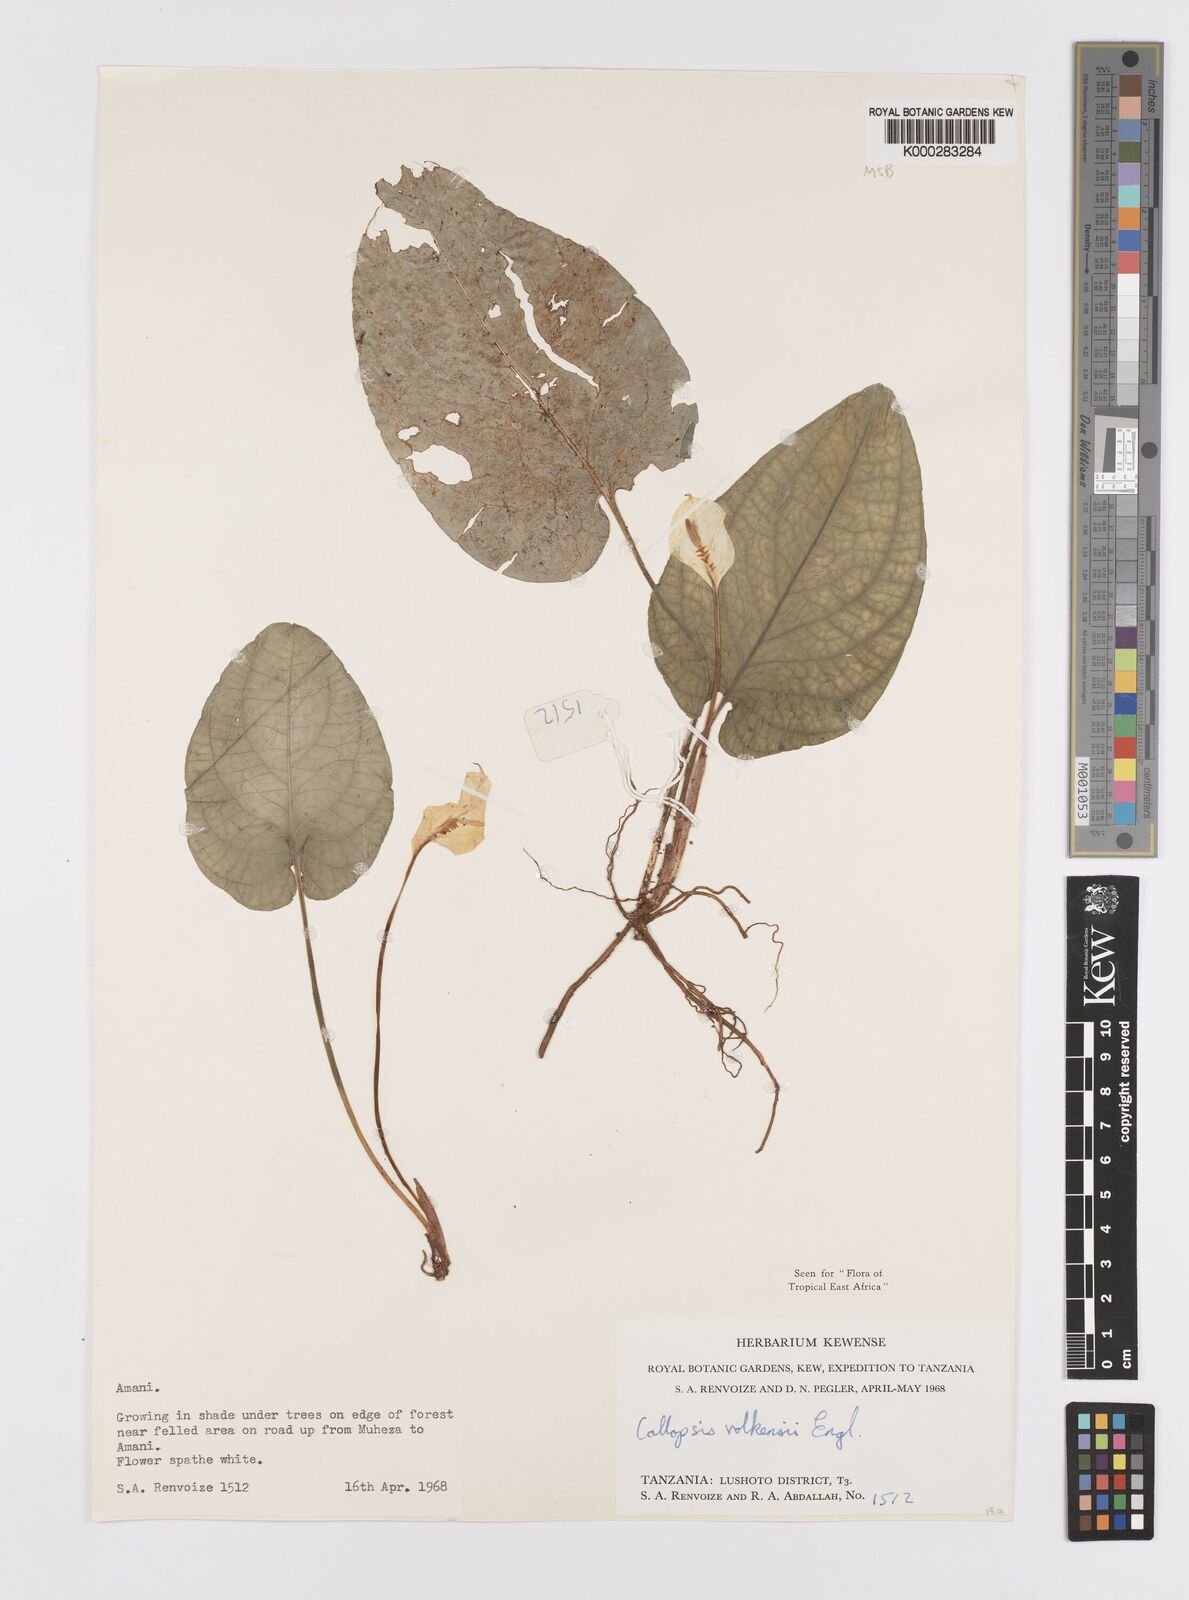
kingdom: Plantae
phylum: Tracheophyta
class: Liliopsida
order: Alismatales
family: Araceae
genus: Callopsis
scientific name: Callopsis volkensii
